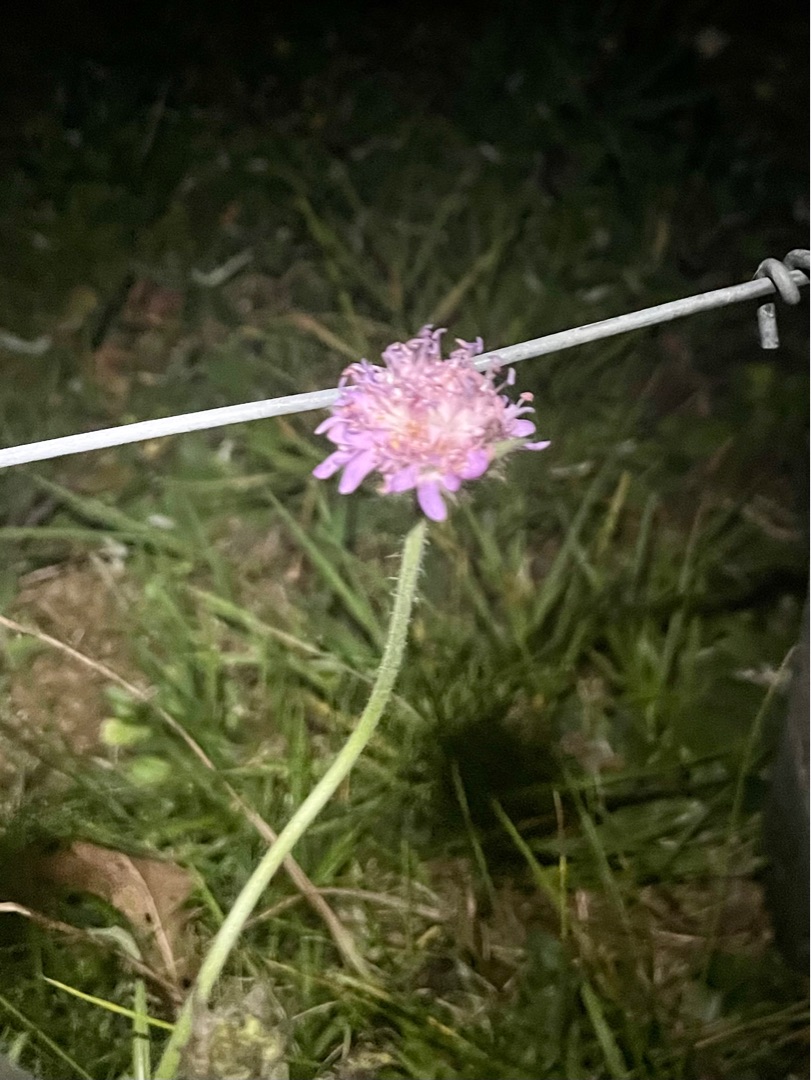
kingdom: Plantae
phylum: Tracheophyta
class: Magnoliopsida
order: Dipsacales
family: Caprifoliaceae
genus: Knautia
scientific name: Knautia arvensis
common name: Blåhat
